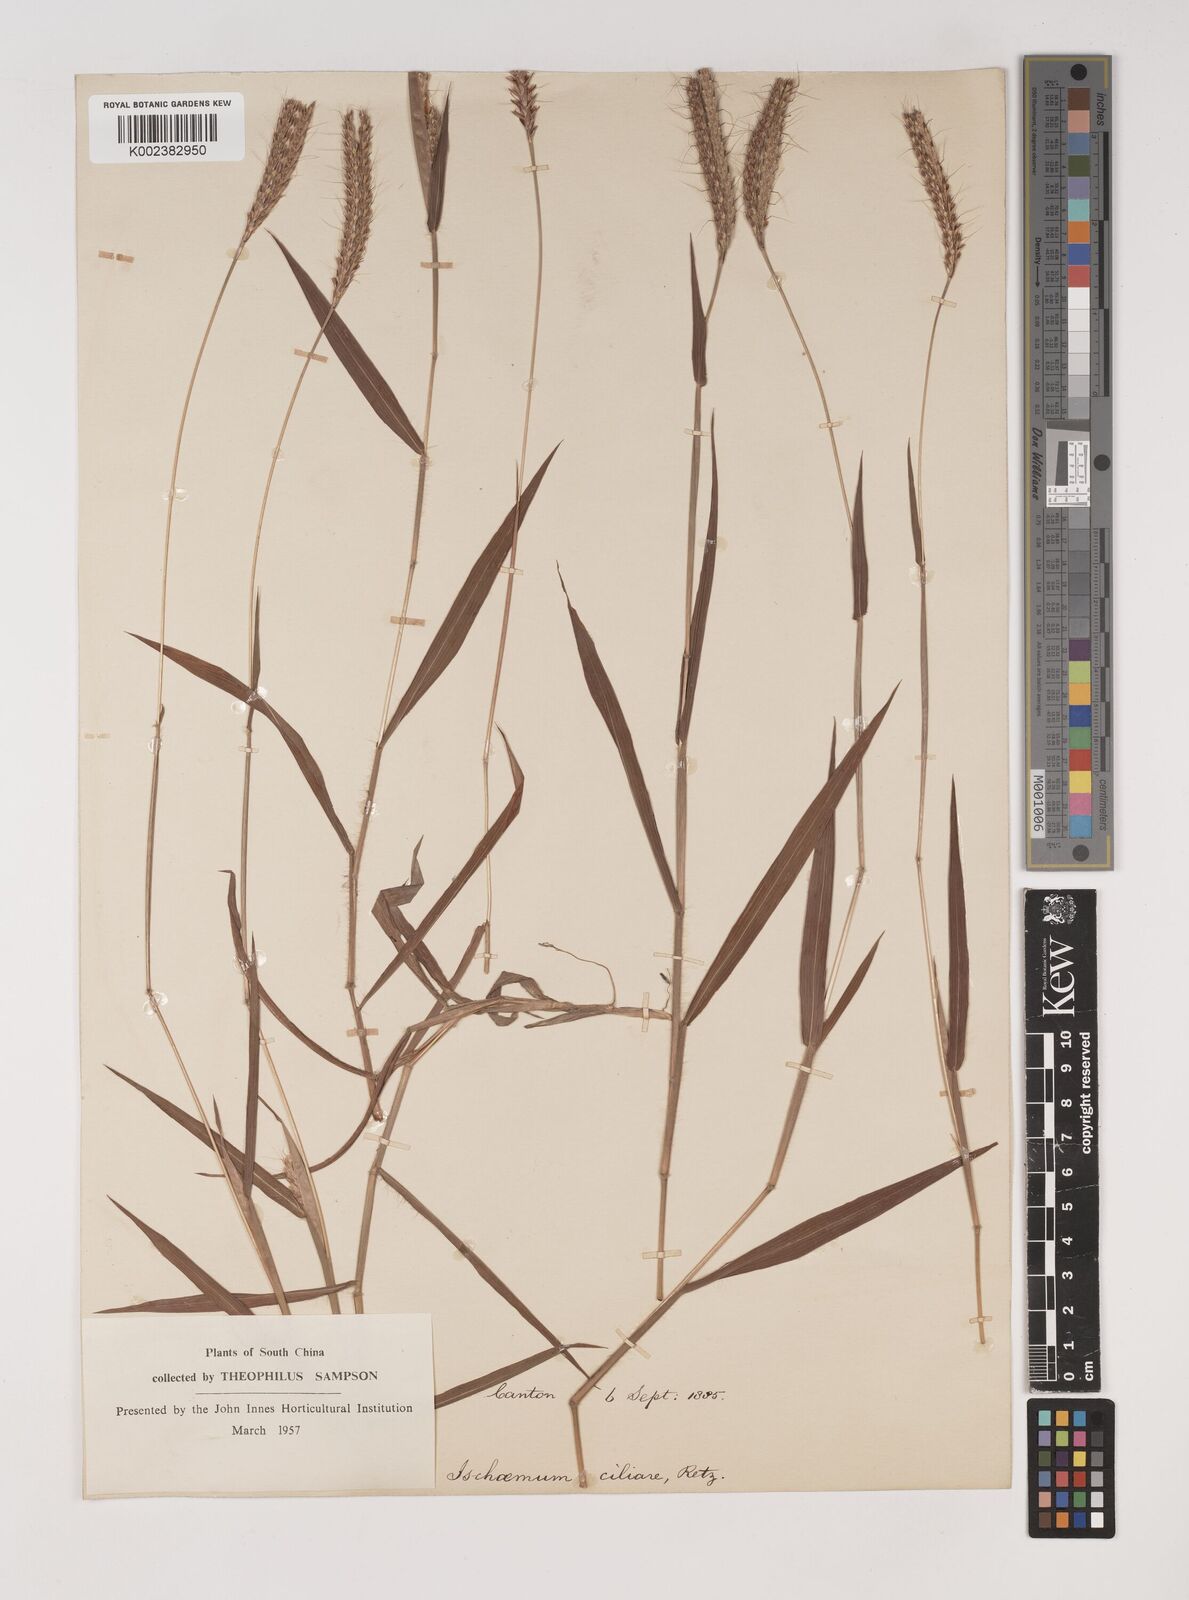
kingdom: Plantae
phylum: Tracheophyta
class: Liliopsida
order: Poales
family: Poaceae
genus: Ischaemum
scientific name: Ischaemum ciliare
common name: Grass
